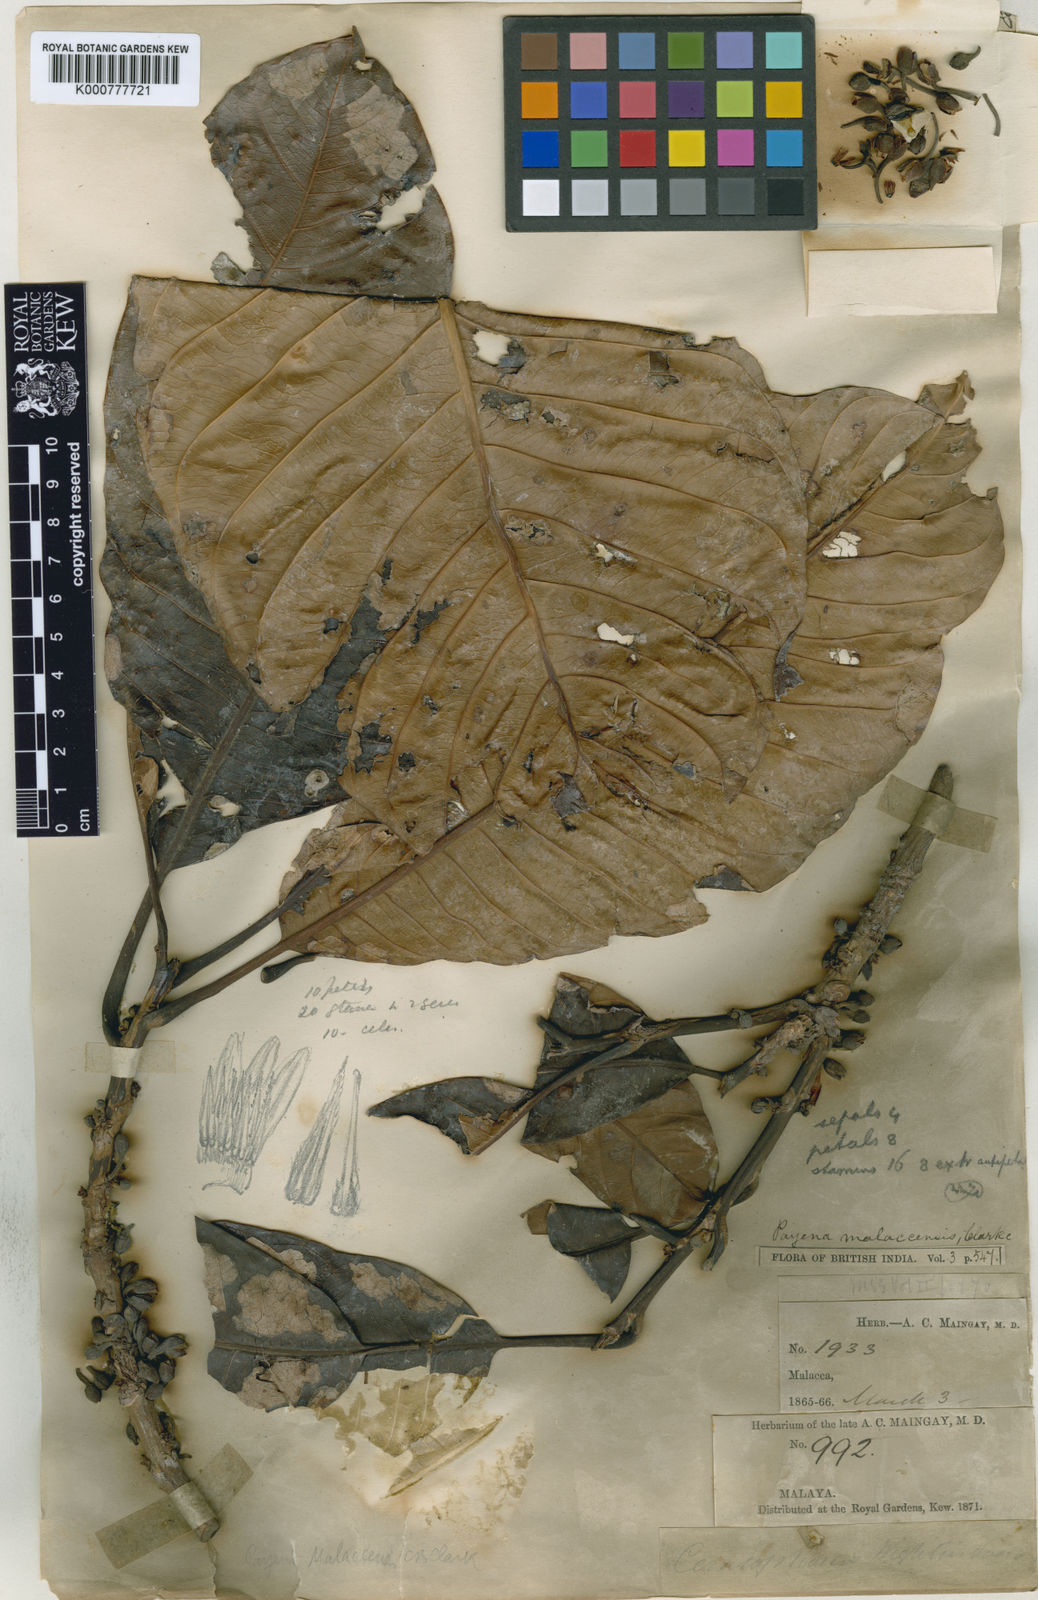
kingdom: Plantae
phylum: Tracheophyta
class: Magnoliopsida
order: Ericales
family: Sapotaceae
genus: Madhuca
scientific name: Madhuca malaccensis
